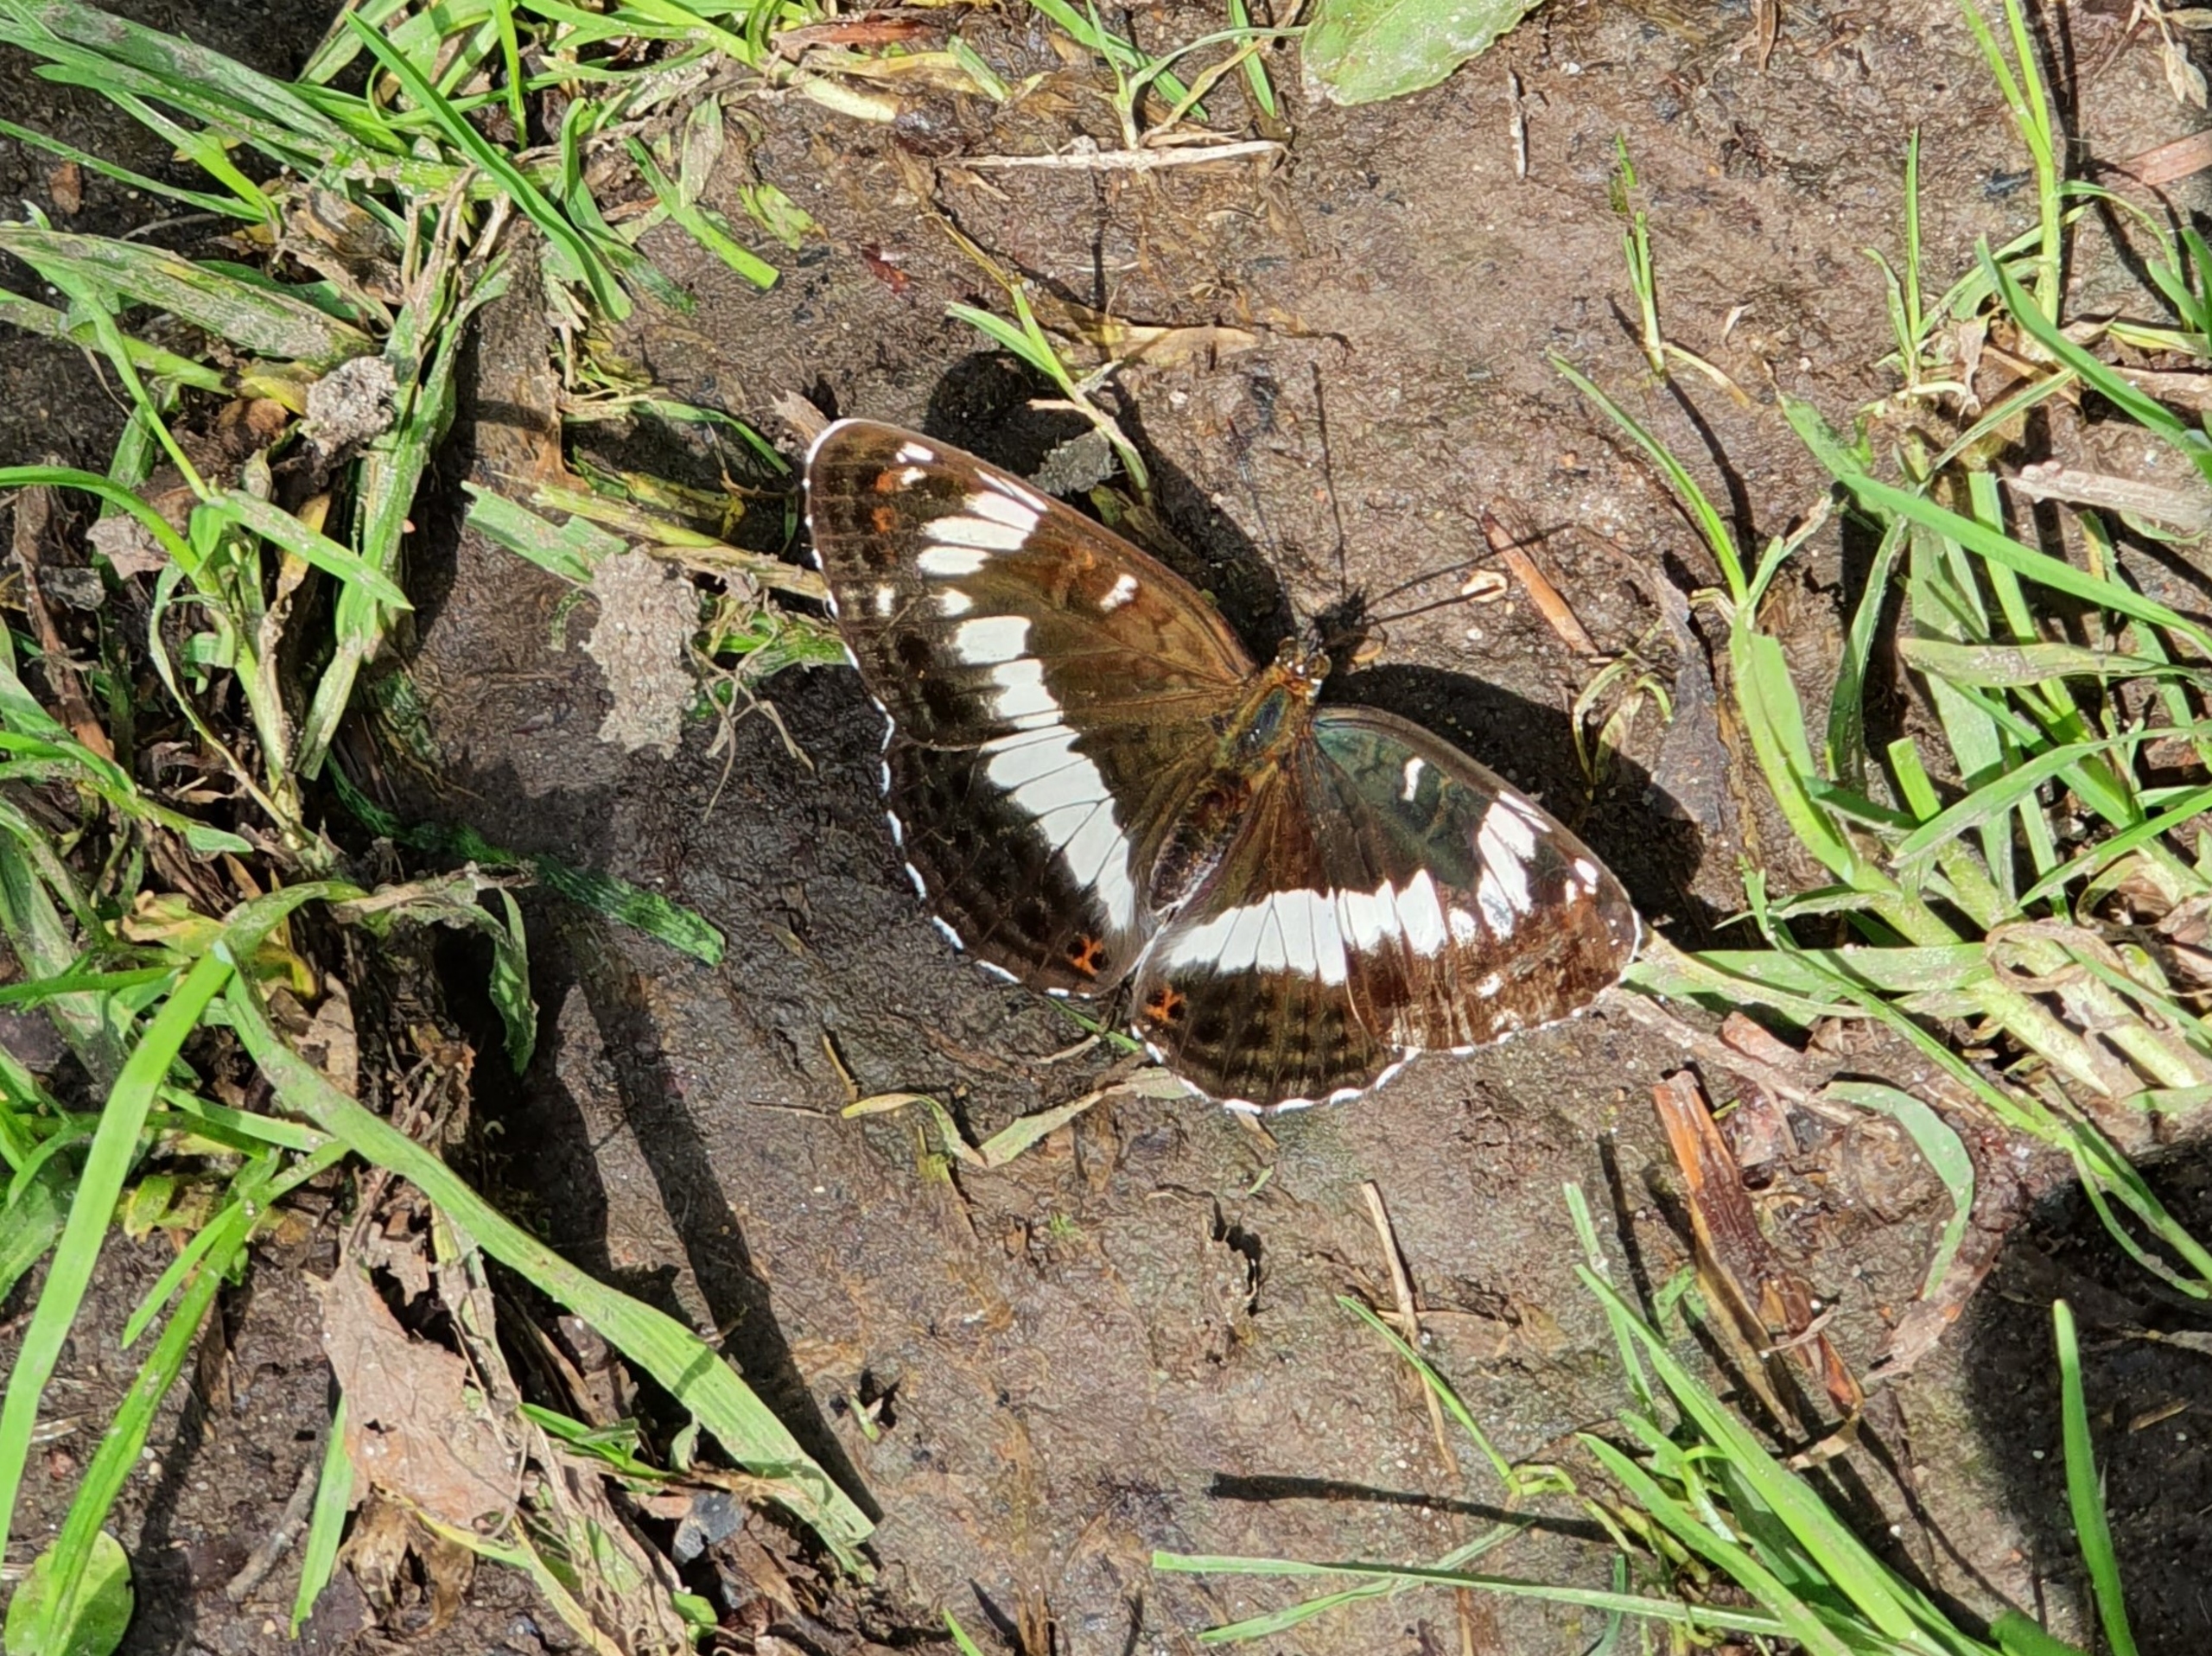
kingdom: Animalia
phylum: Arthropoda
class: Insecta
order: Lepidoptera
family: Nymphalidae
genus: Ladoga
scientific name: Ladoga camilla
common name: Hvid admiral
